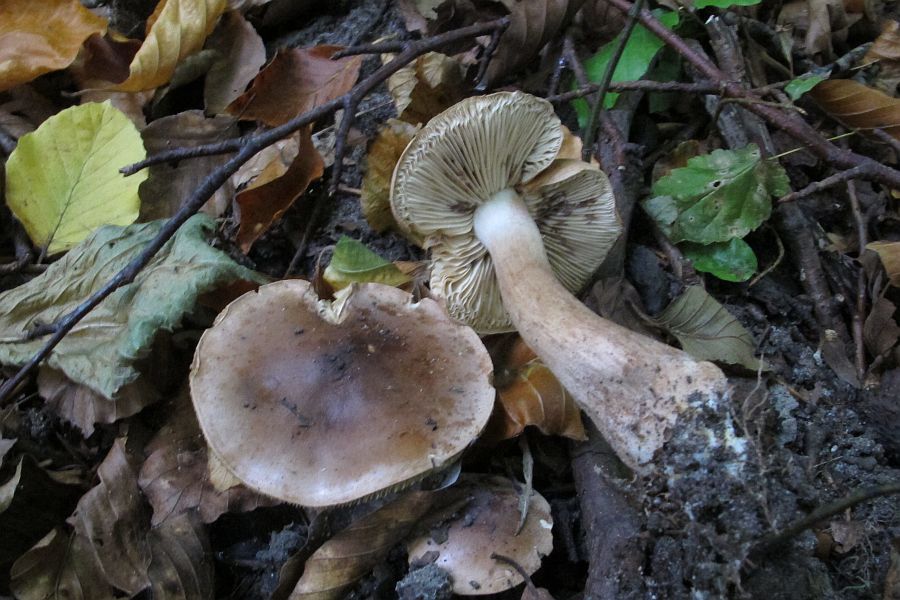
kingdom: Fungi
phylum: Basidiomycota
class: Agaricomycetes
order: Agaricales
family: Tricholomataceae
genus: Tricholoma
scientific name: Tricholoma ustale
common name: sveden ridderhat
